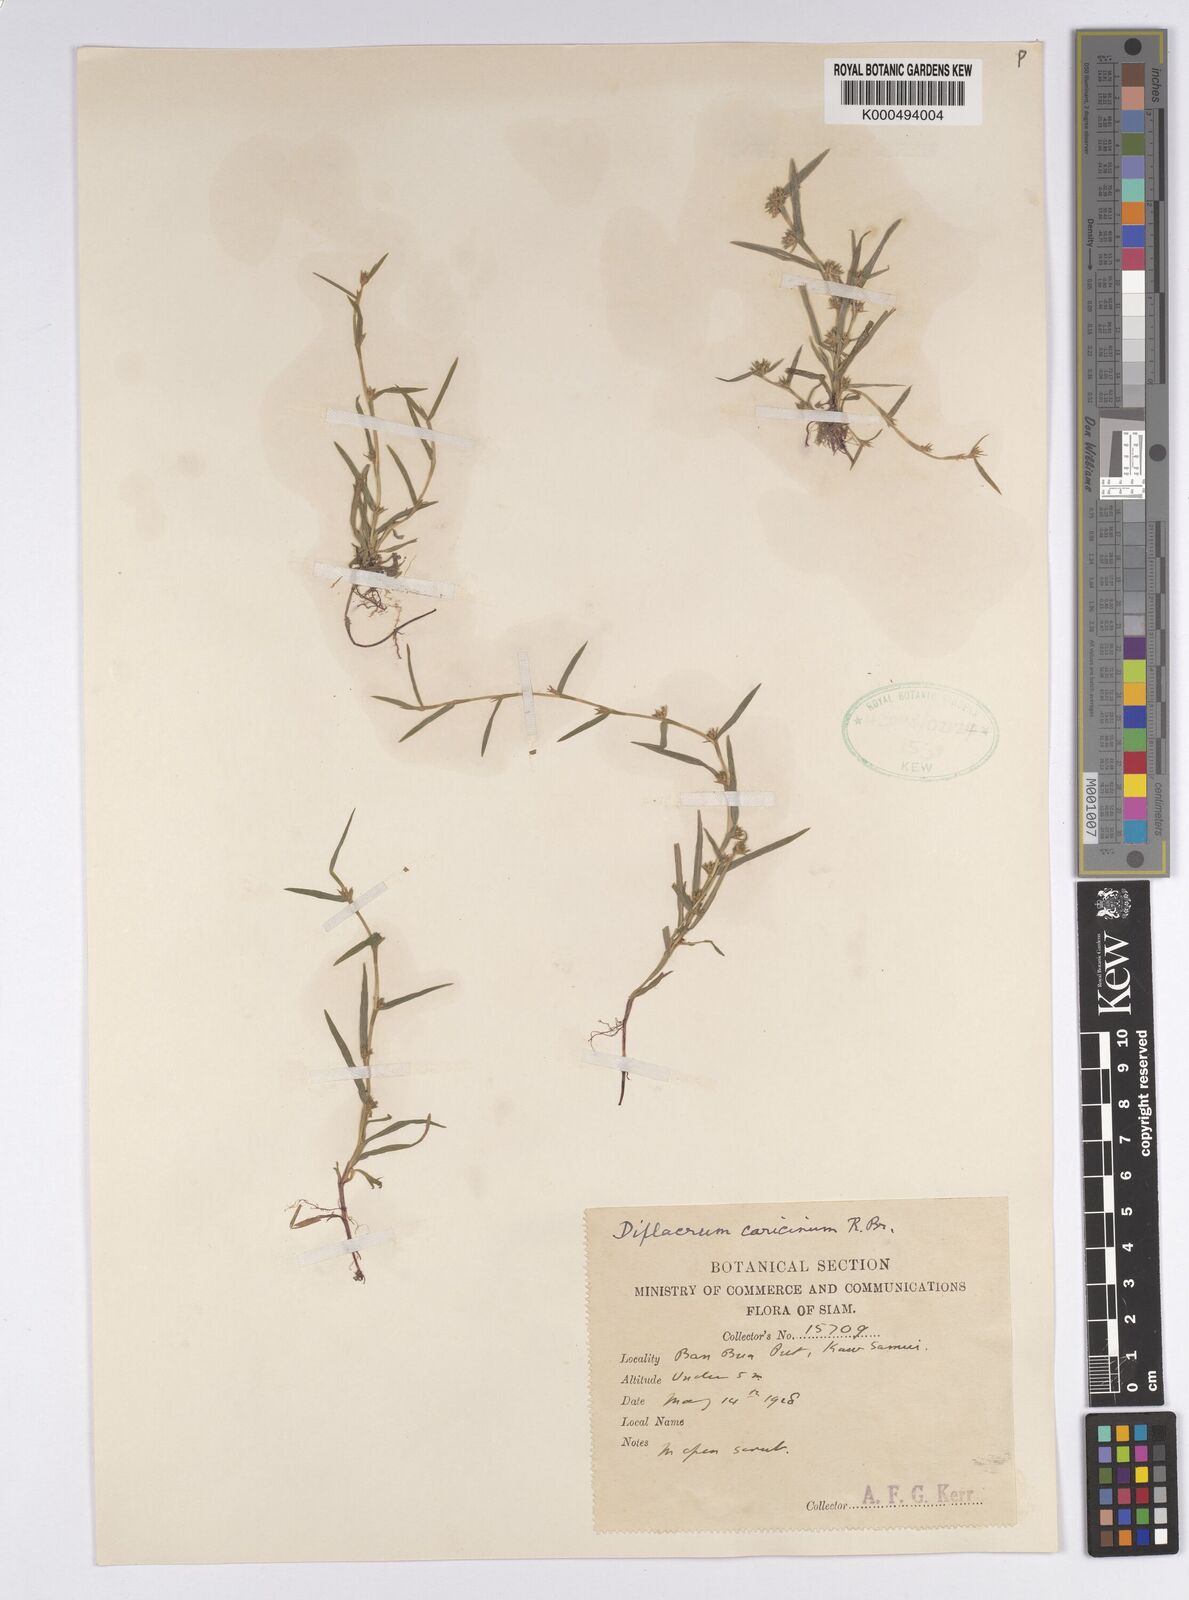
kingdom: Plantae
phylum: Tracheophyta
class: Liliopsida
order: Poales
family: Cyperaceae
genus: Diplacrum
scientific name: Diplacrum caricinum
